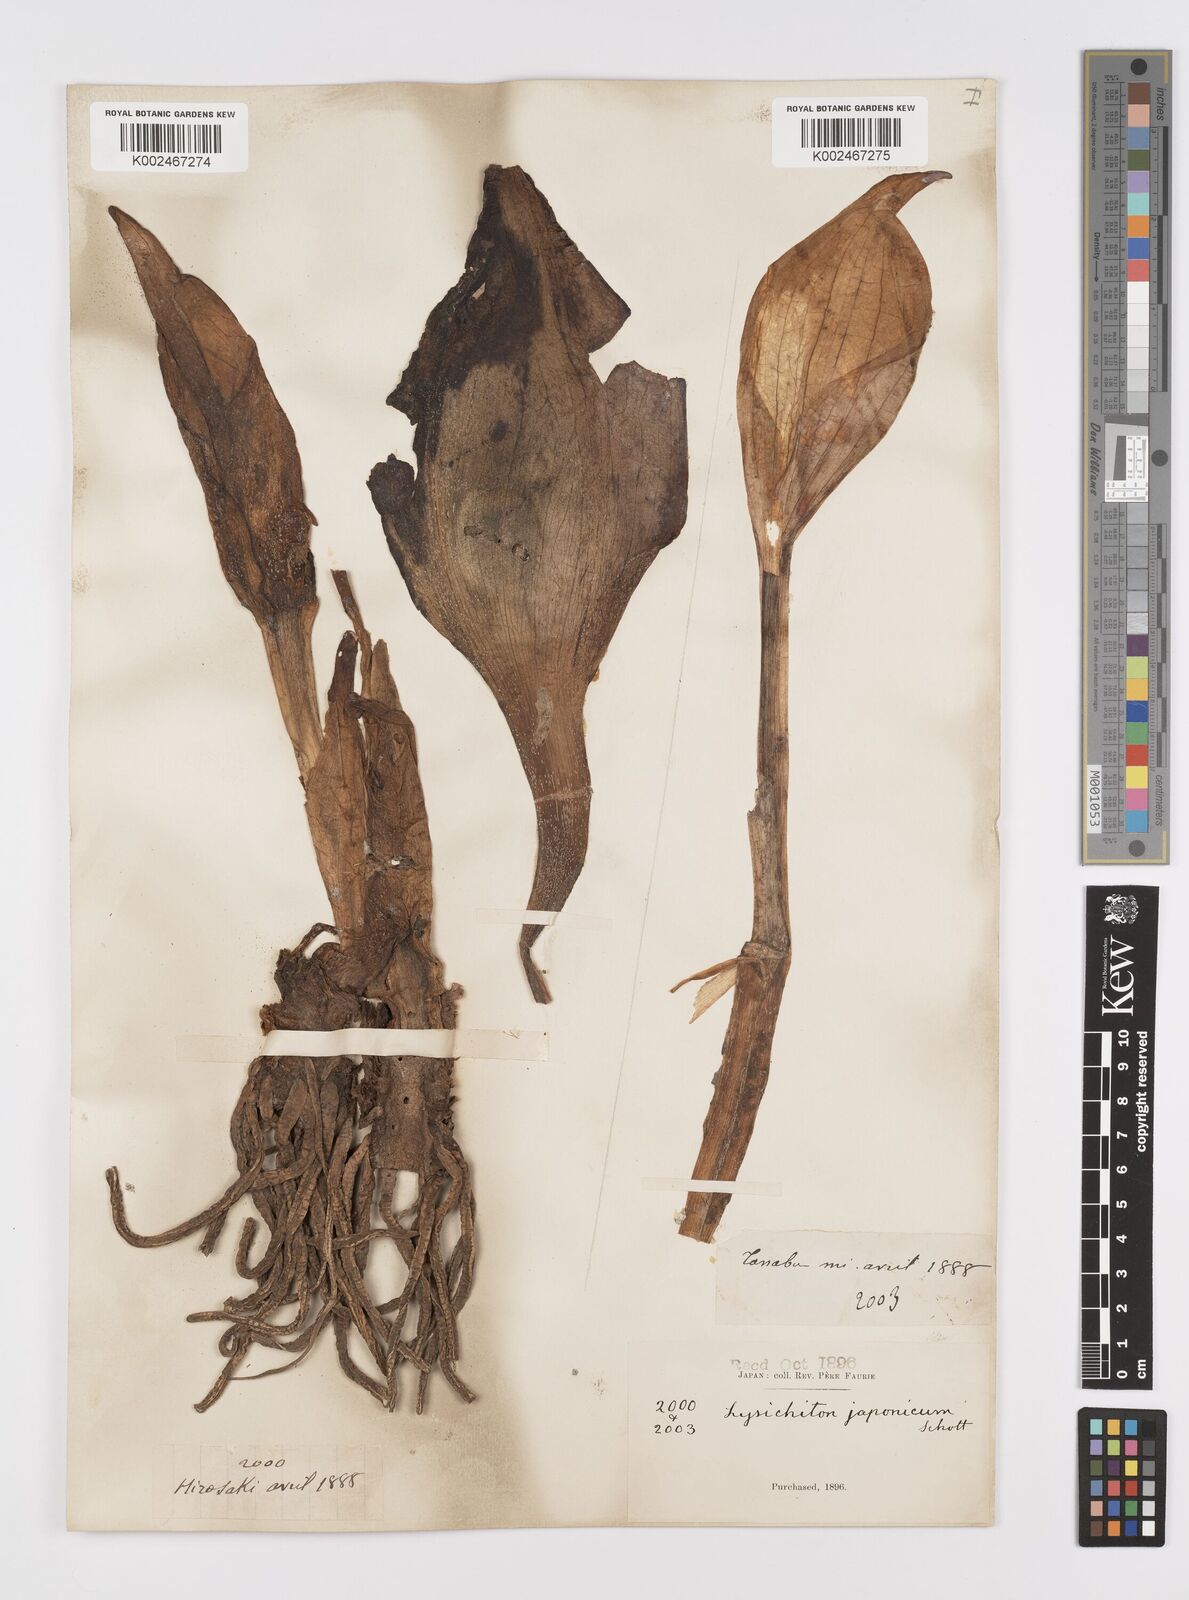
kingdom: Plantae
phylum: Tracheophyta
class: Liliopsida
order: Alismatales
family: Araceae
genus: Lysichiton
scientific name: Lysichiton camtschatcensis
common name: Asian skunk-cabbage
